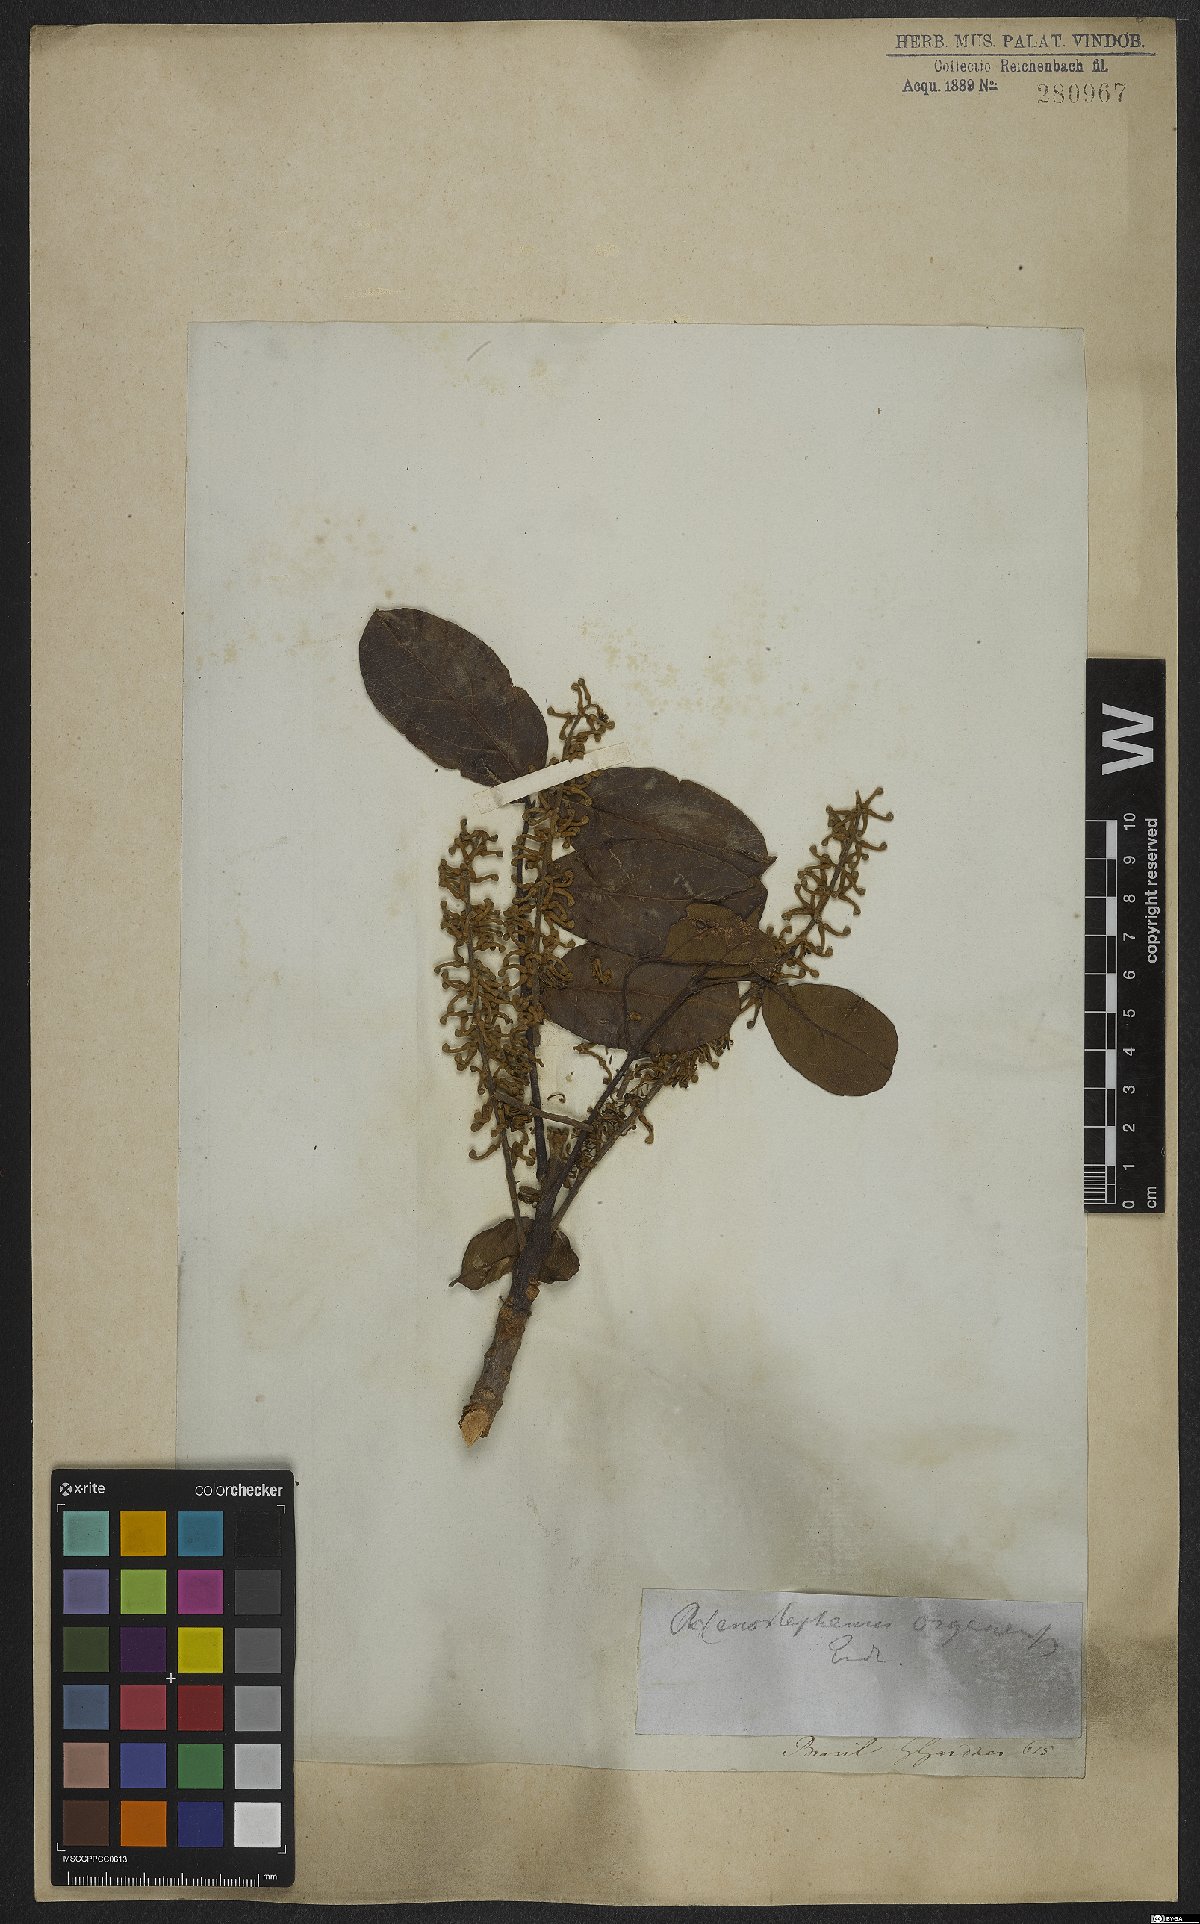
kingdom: Plantae
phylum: Tracheophyta
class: Magnoliopsida
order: Proteales
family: Proteaceae
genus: Euplassa
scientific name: Euplassa organensis
